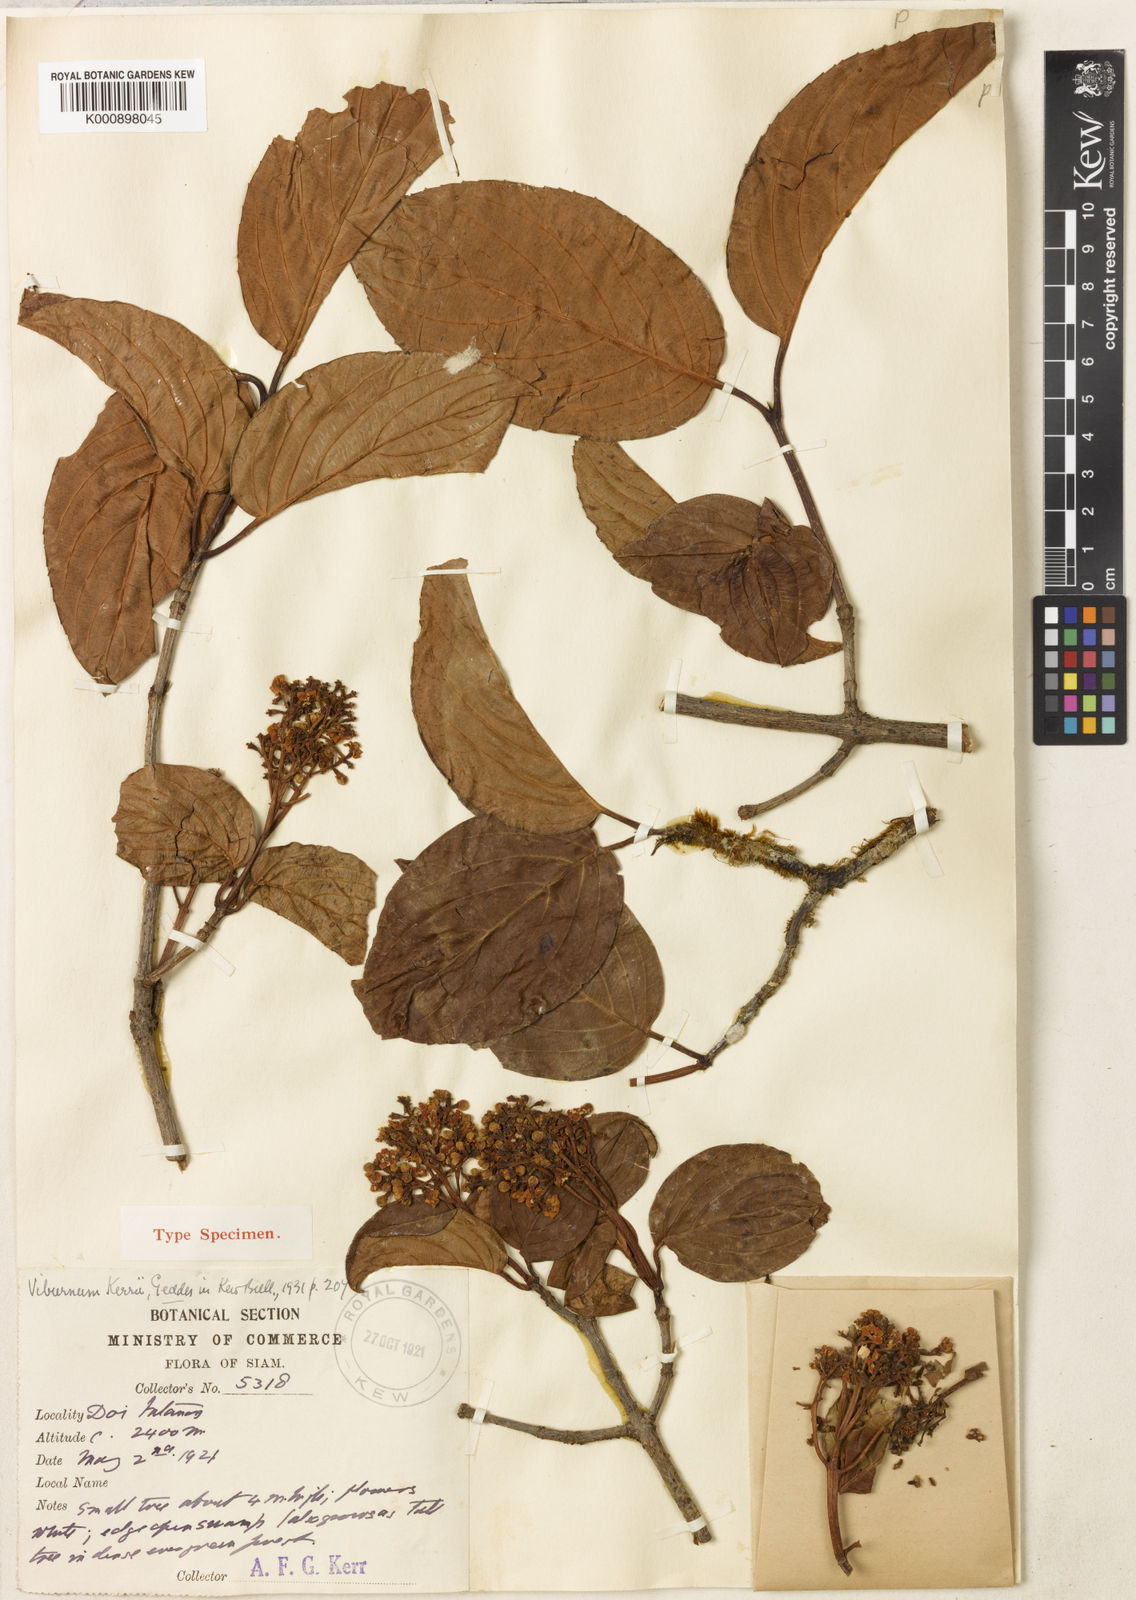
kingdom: Plantae
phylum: Tracheophyta
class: Magnoliopsida
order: Dipsacales
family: Viburnaceae
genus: Viburnum
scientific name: Viburnum kerrii
